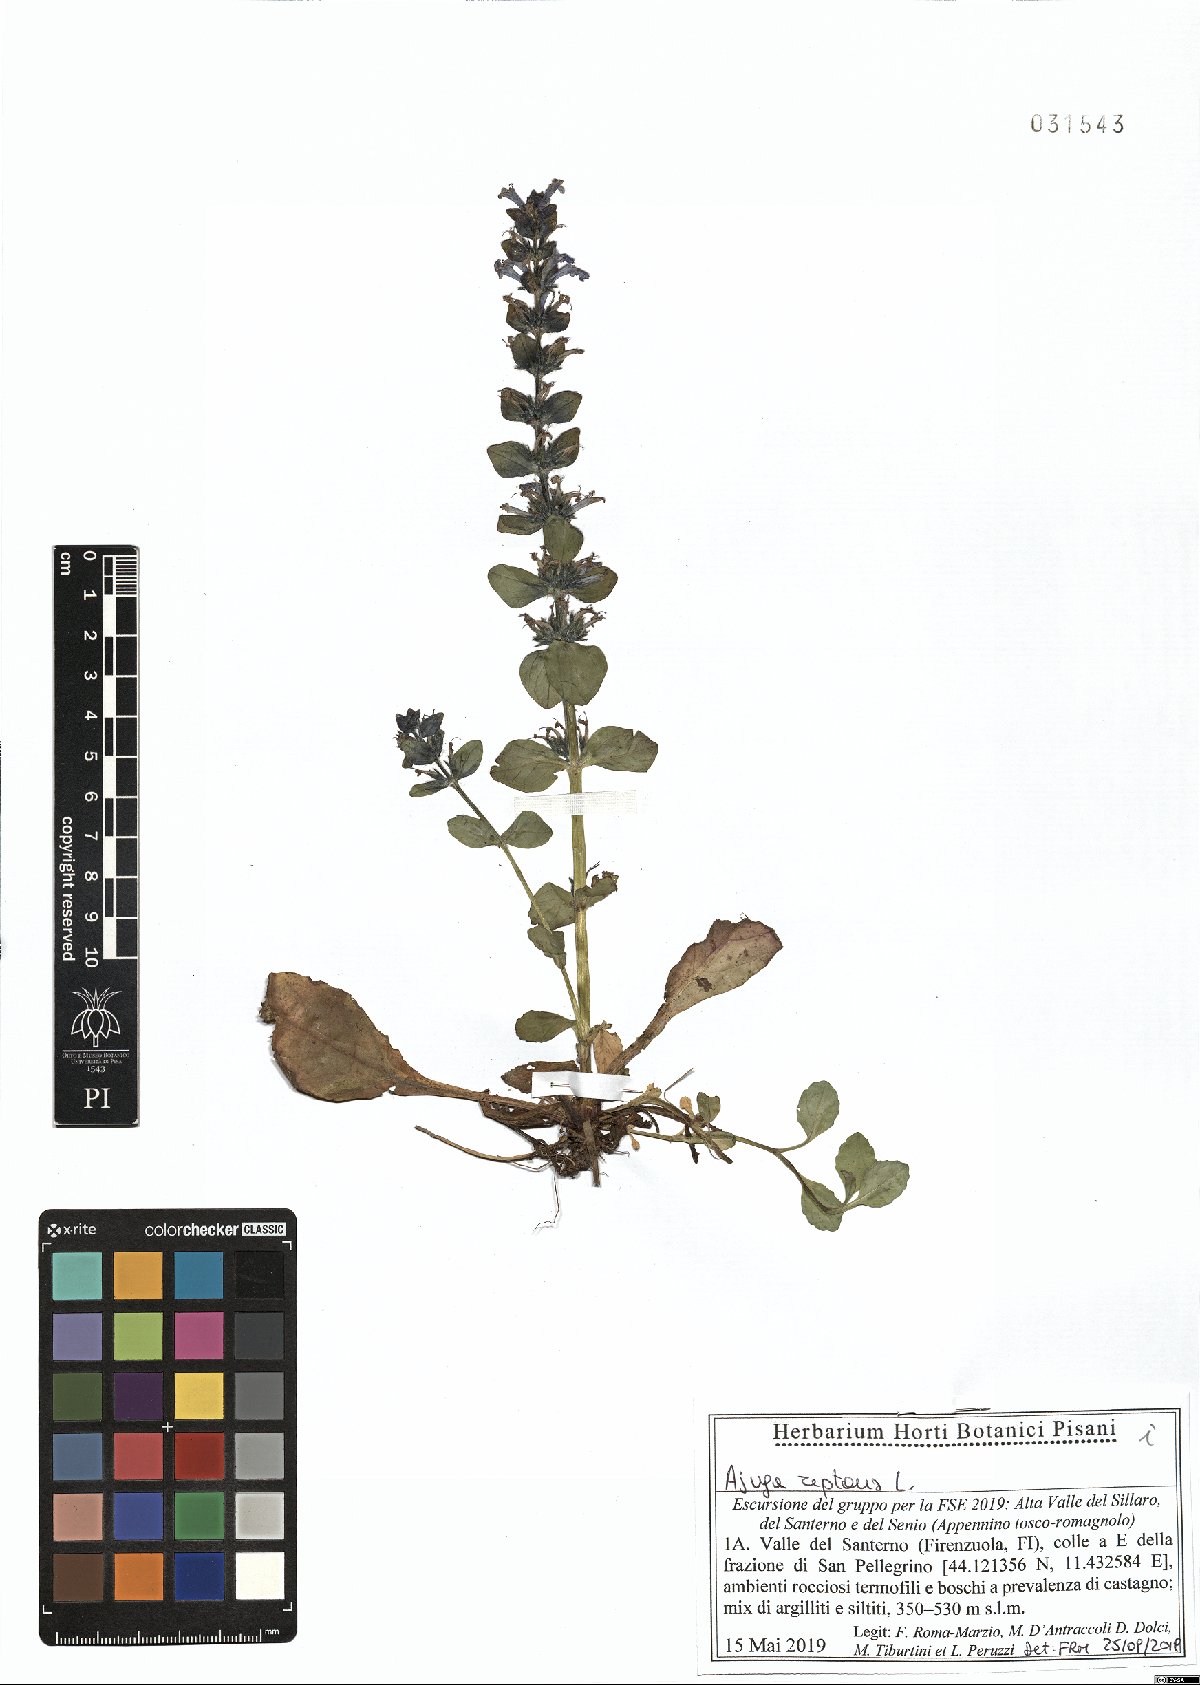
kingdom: Plantae
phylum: Tracheophyta
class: Magnoliopsida
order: Lamiales
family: Lamiaceae
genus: Ajuga
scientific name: Ajuga reptans
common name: Bugle
